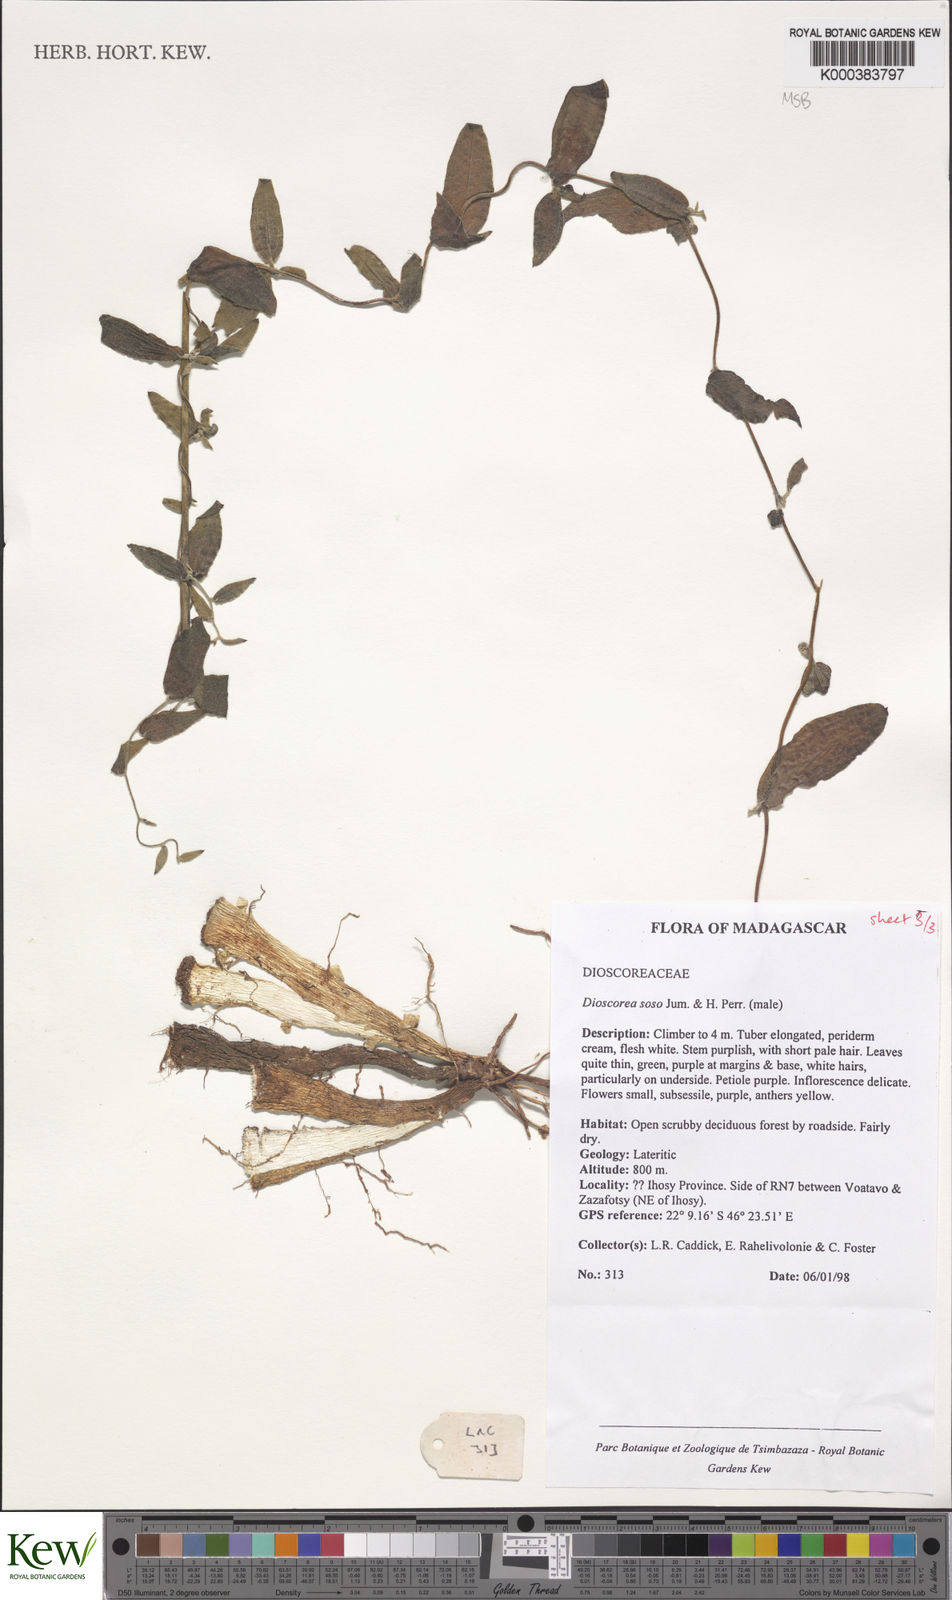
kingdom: Plantae
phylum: Tracheophyta
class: Liliopsida
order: Dioscoreales
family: Dioscoreaceae
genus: Dioscorea
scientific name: Dioscorea
